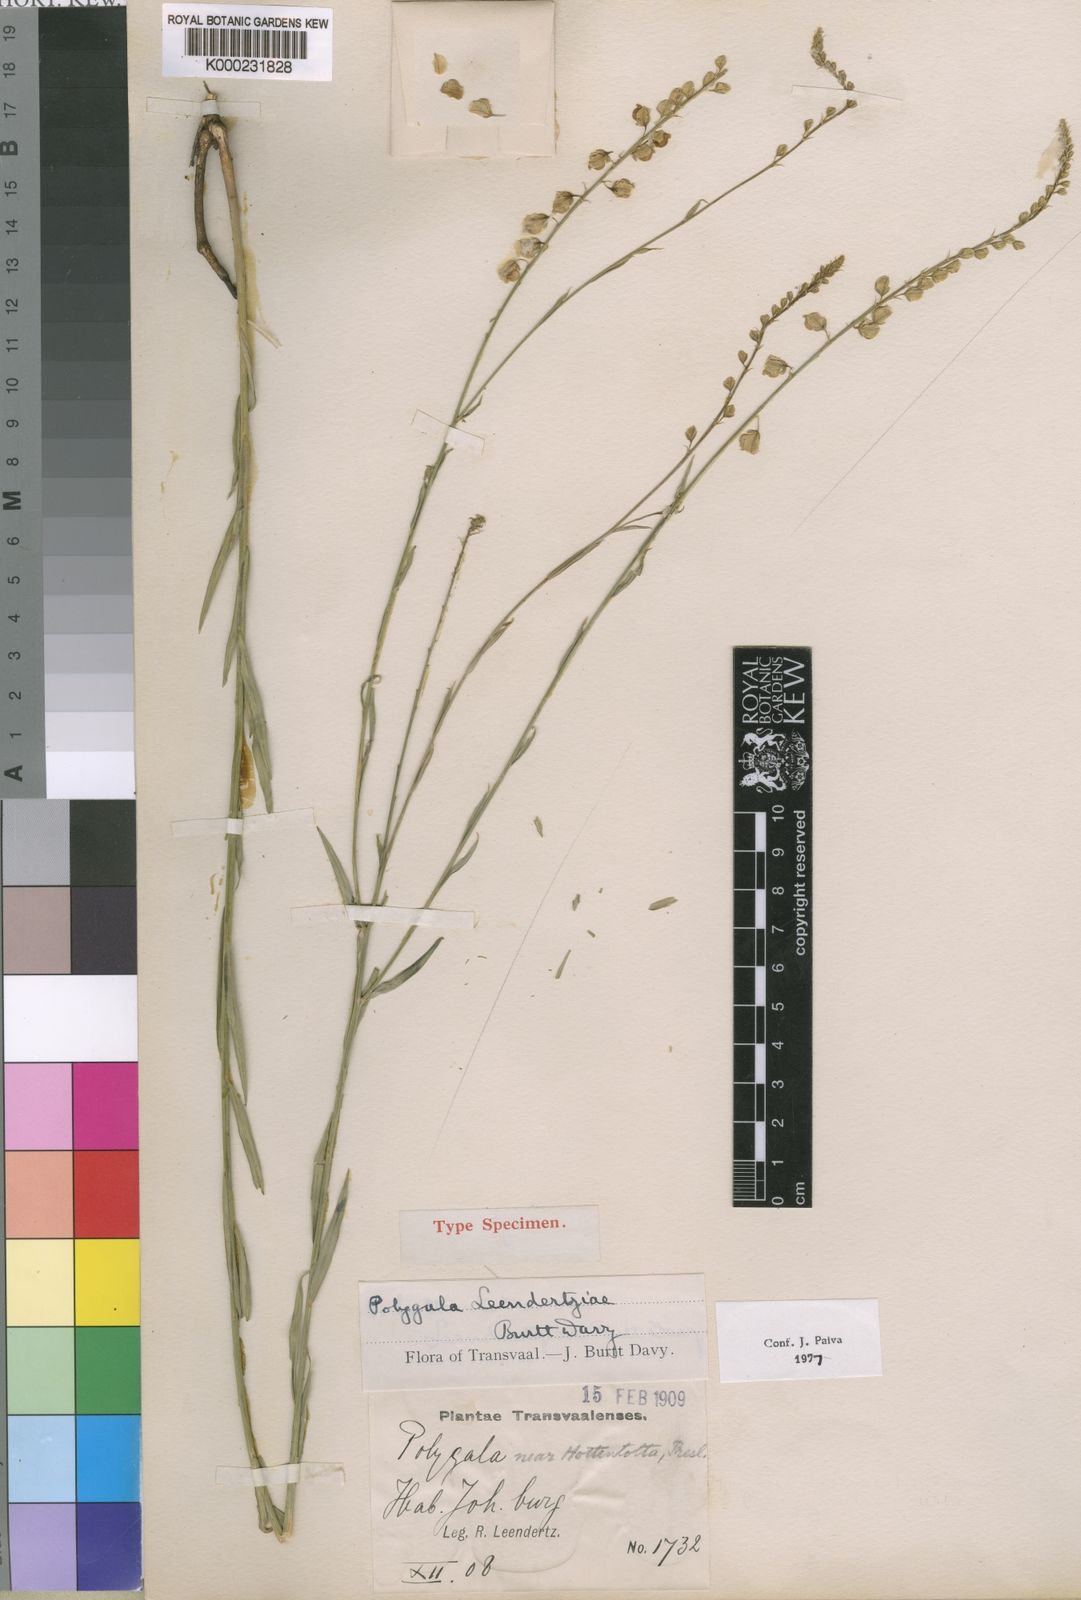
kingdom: Plantae
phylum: Tracheophyta
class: Magnoliopsida
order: Fabales
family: Polygalaceae
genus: Polygala
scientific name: Polygala leendertziae
